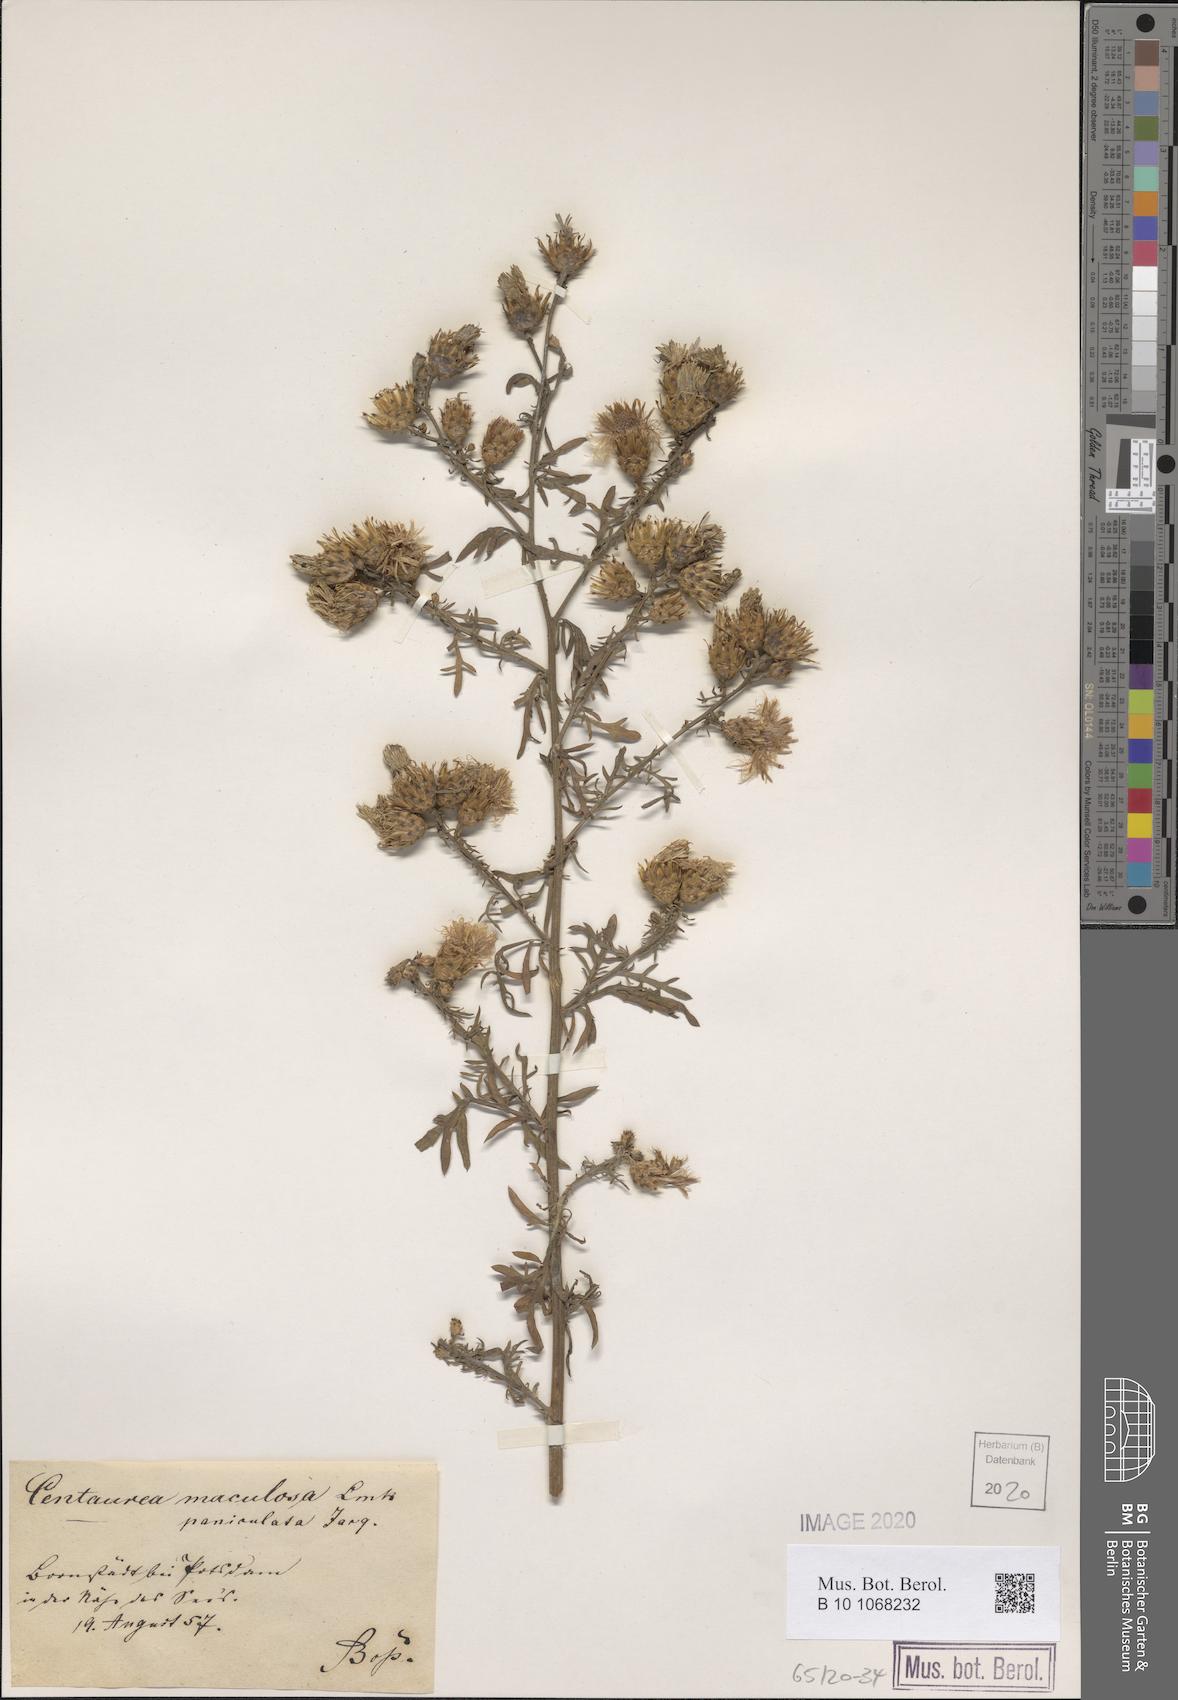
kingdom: Plantae
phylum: Tracheophyta
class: Magnoliopsida
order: Asterales
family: Asteraceae
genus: Centaurea
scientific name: Centaurea stoebe
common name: Spotted knapweed
